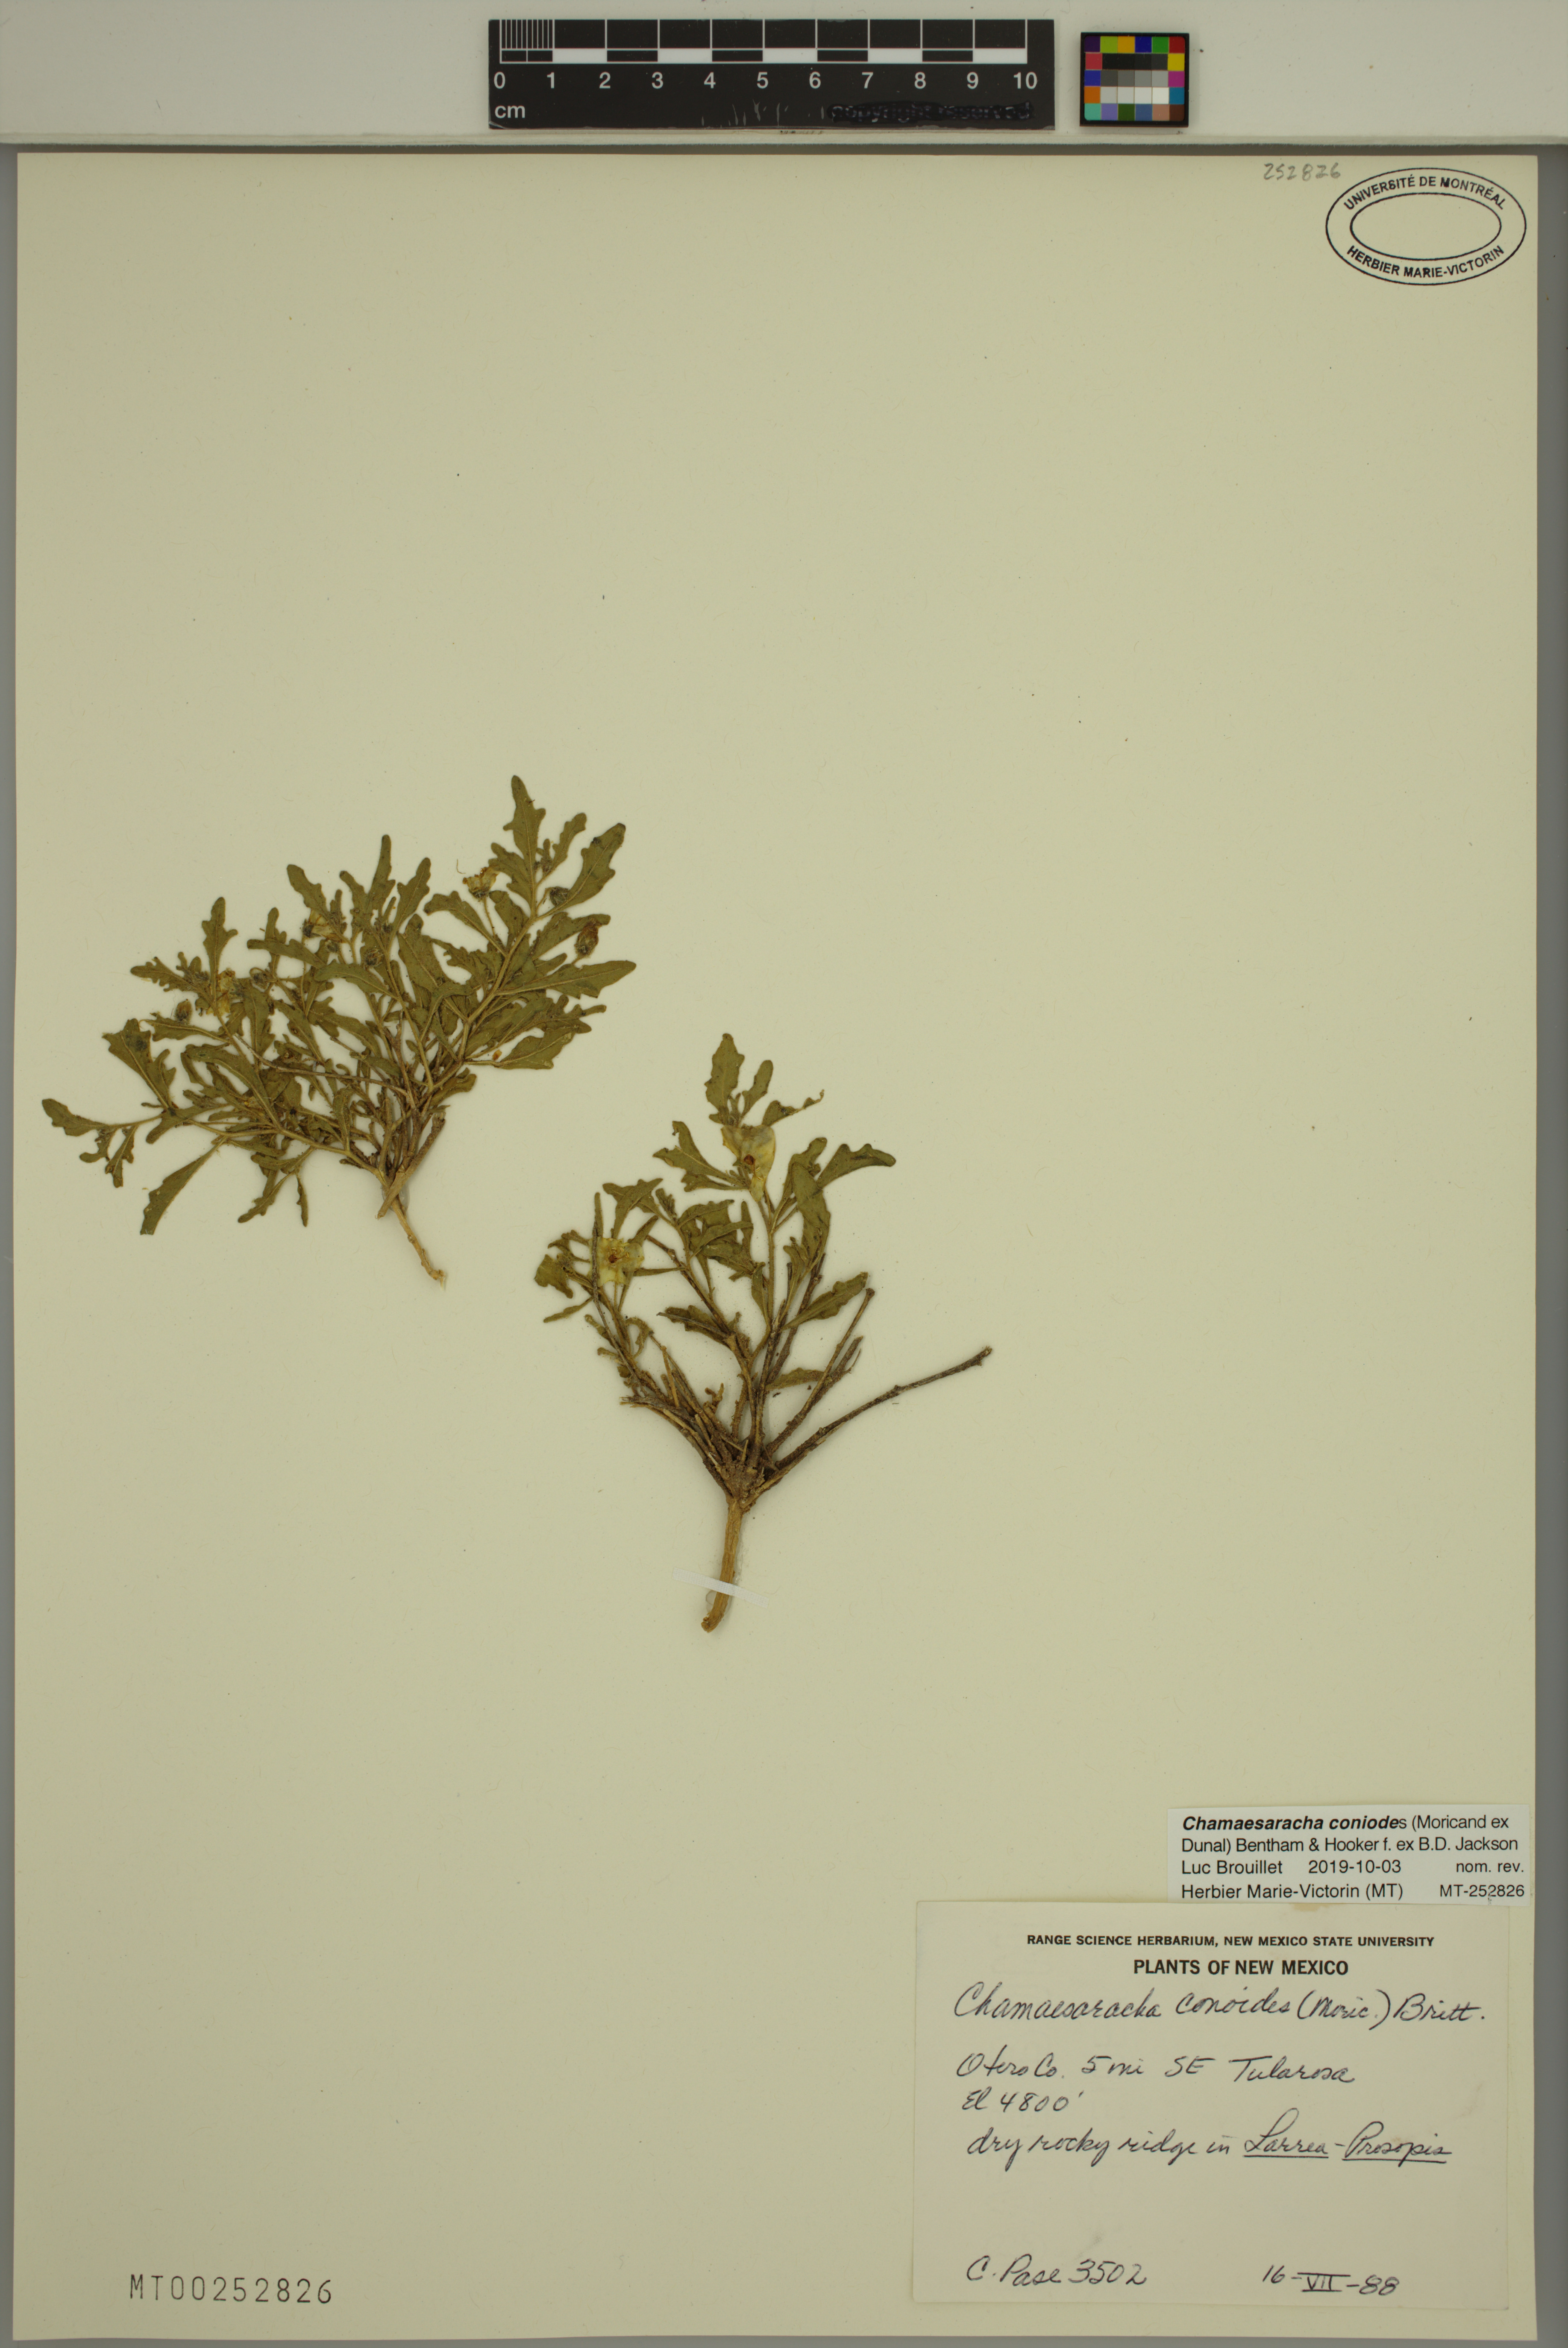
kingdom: Plantae
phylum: Tracheophyta
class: Magnoliopsida
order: Solanales
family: Solanaceae
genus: Chamaesaracha
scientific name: Chamaesaracha sordida
